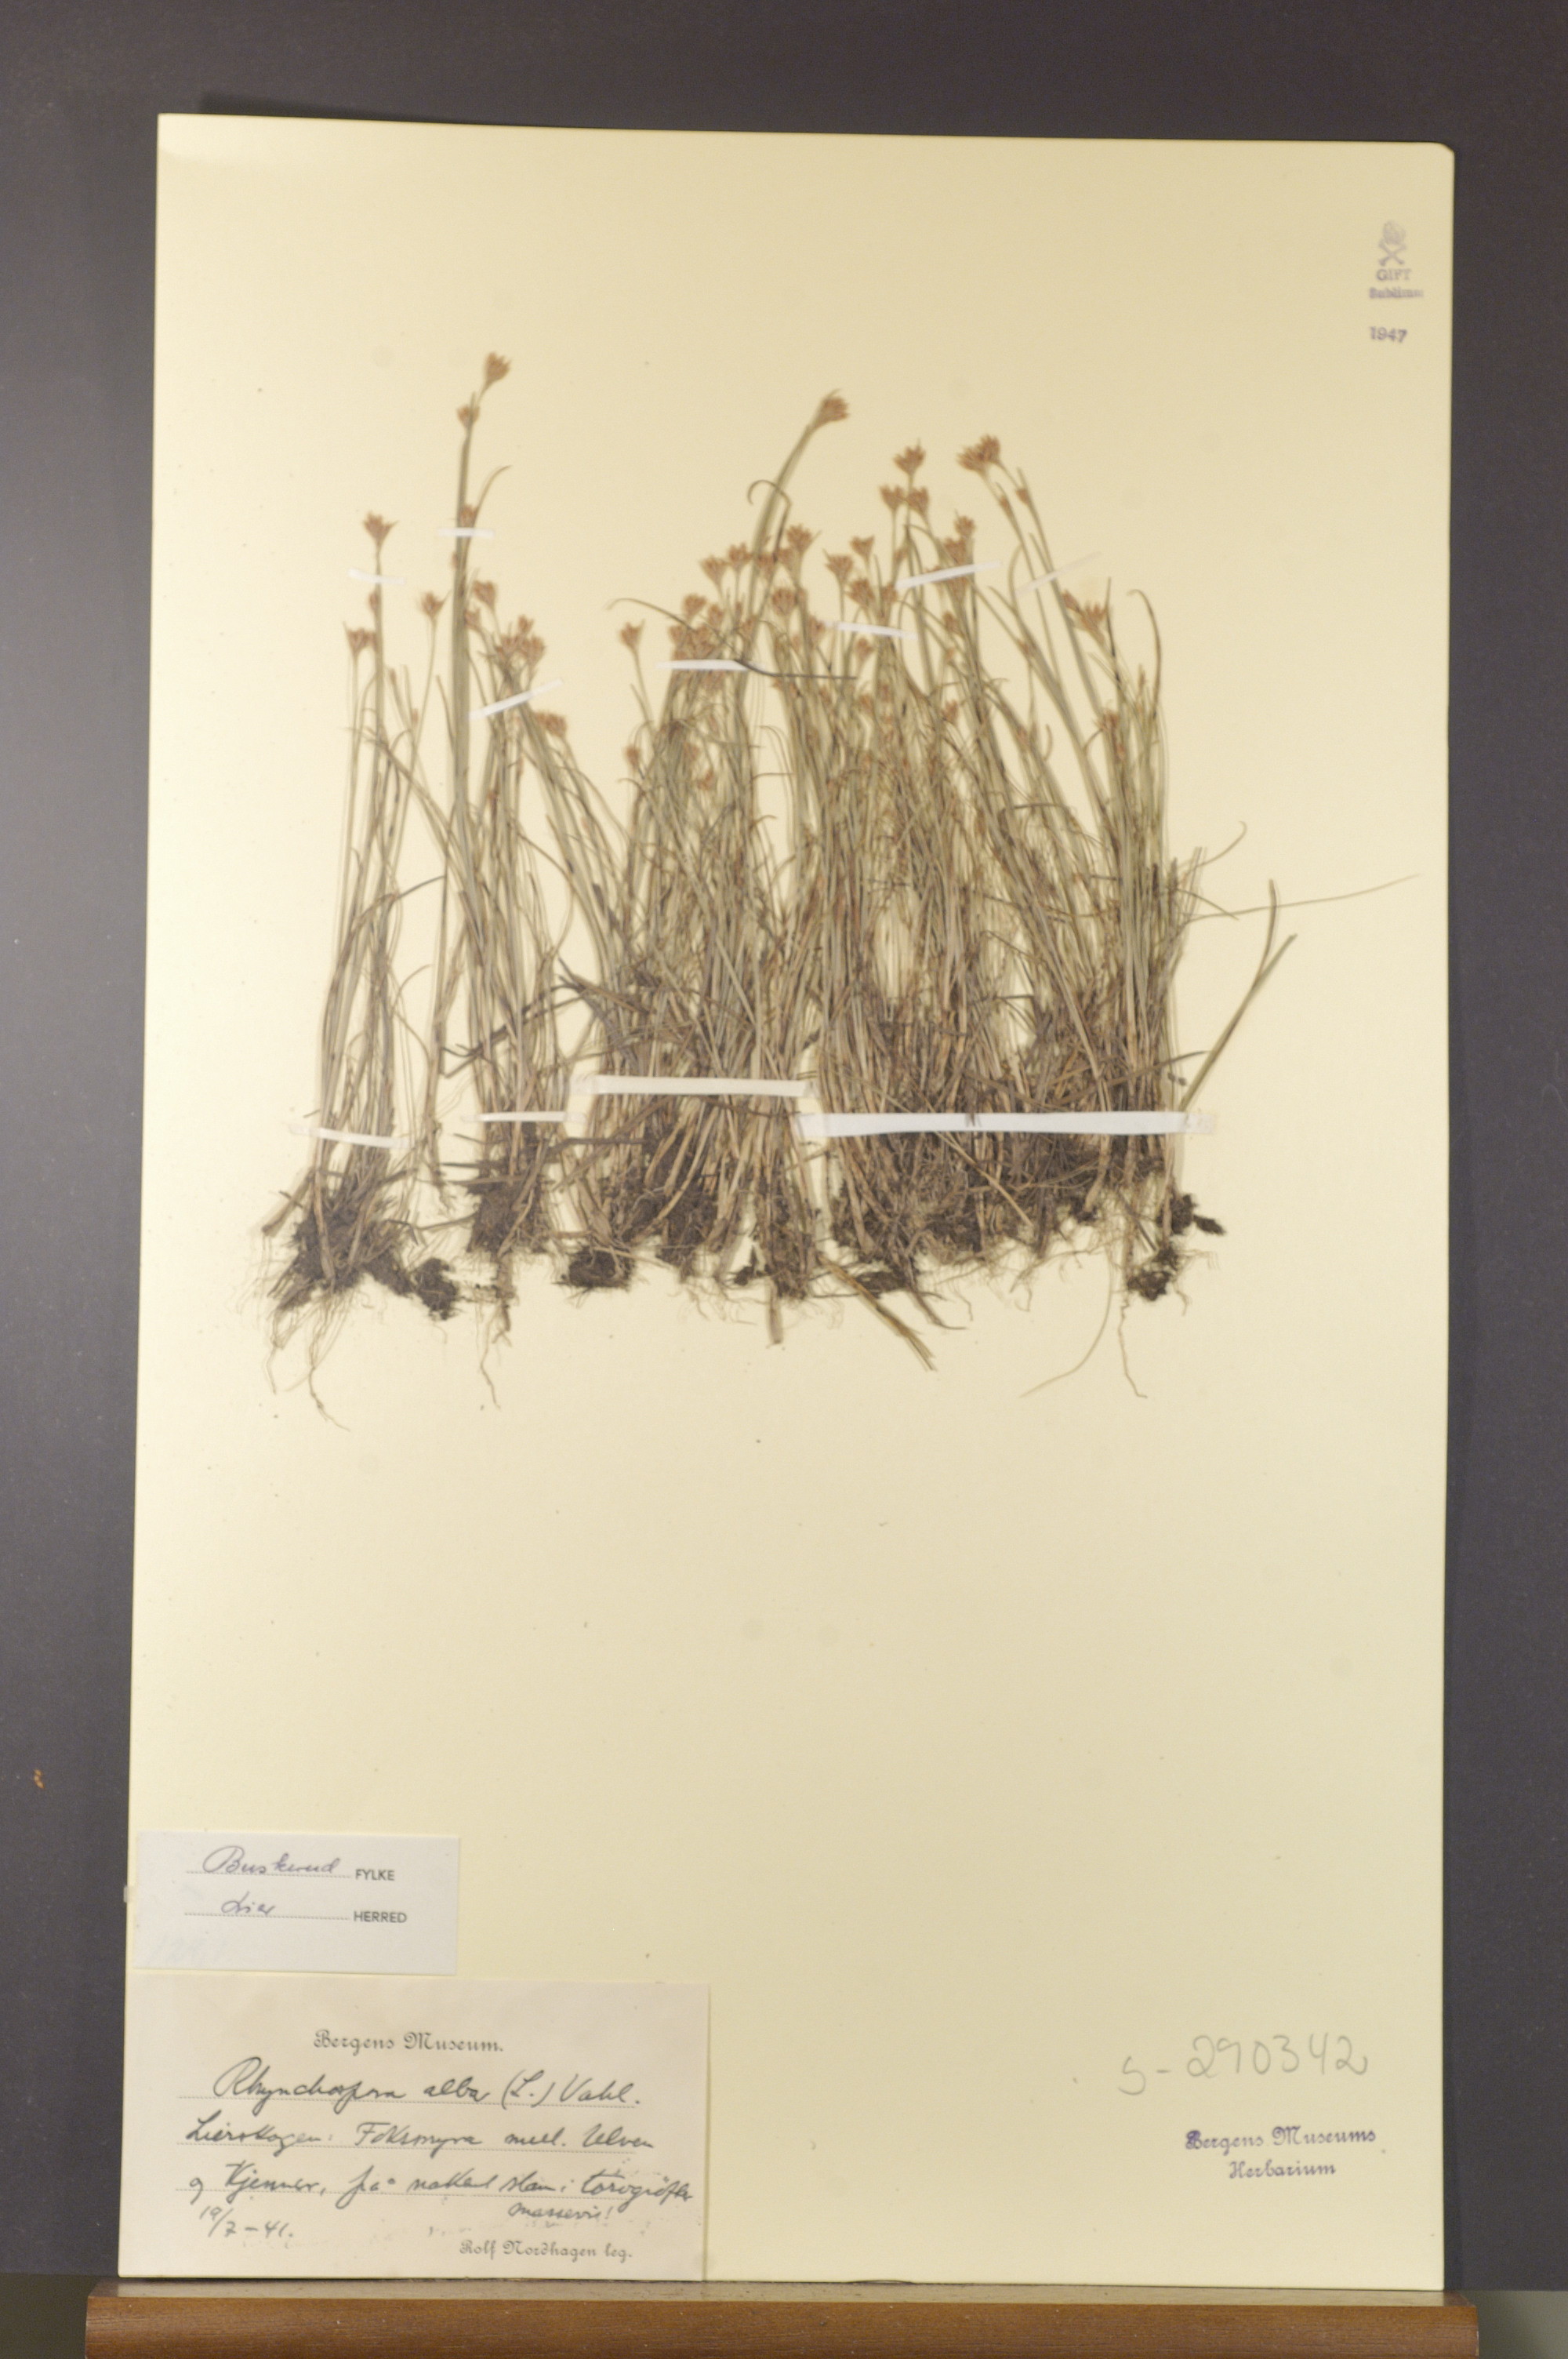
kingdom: Plantae
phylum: Tracheophyta
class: Liliopsida
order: Poales
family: Cyperaceae
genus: Rhynchospora
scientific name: Rhynchospora alba
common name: White beak-sedge
